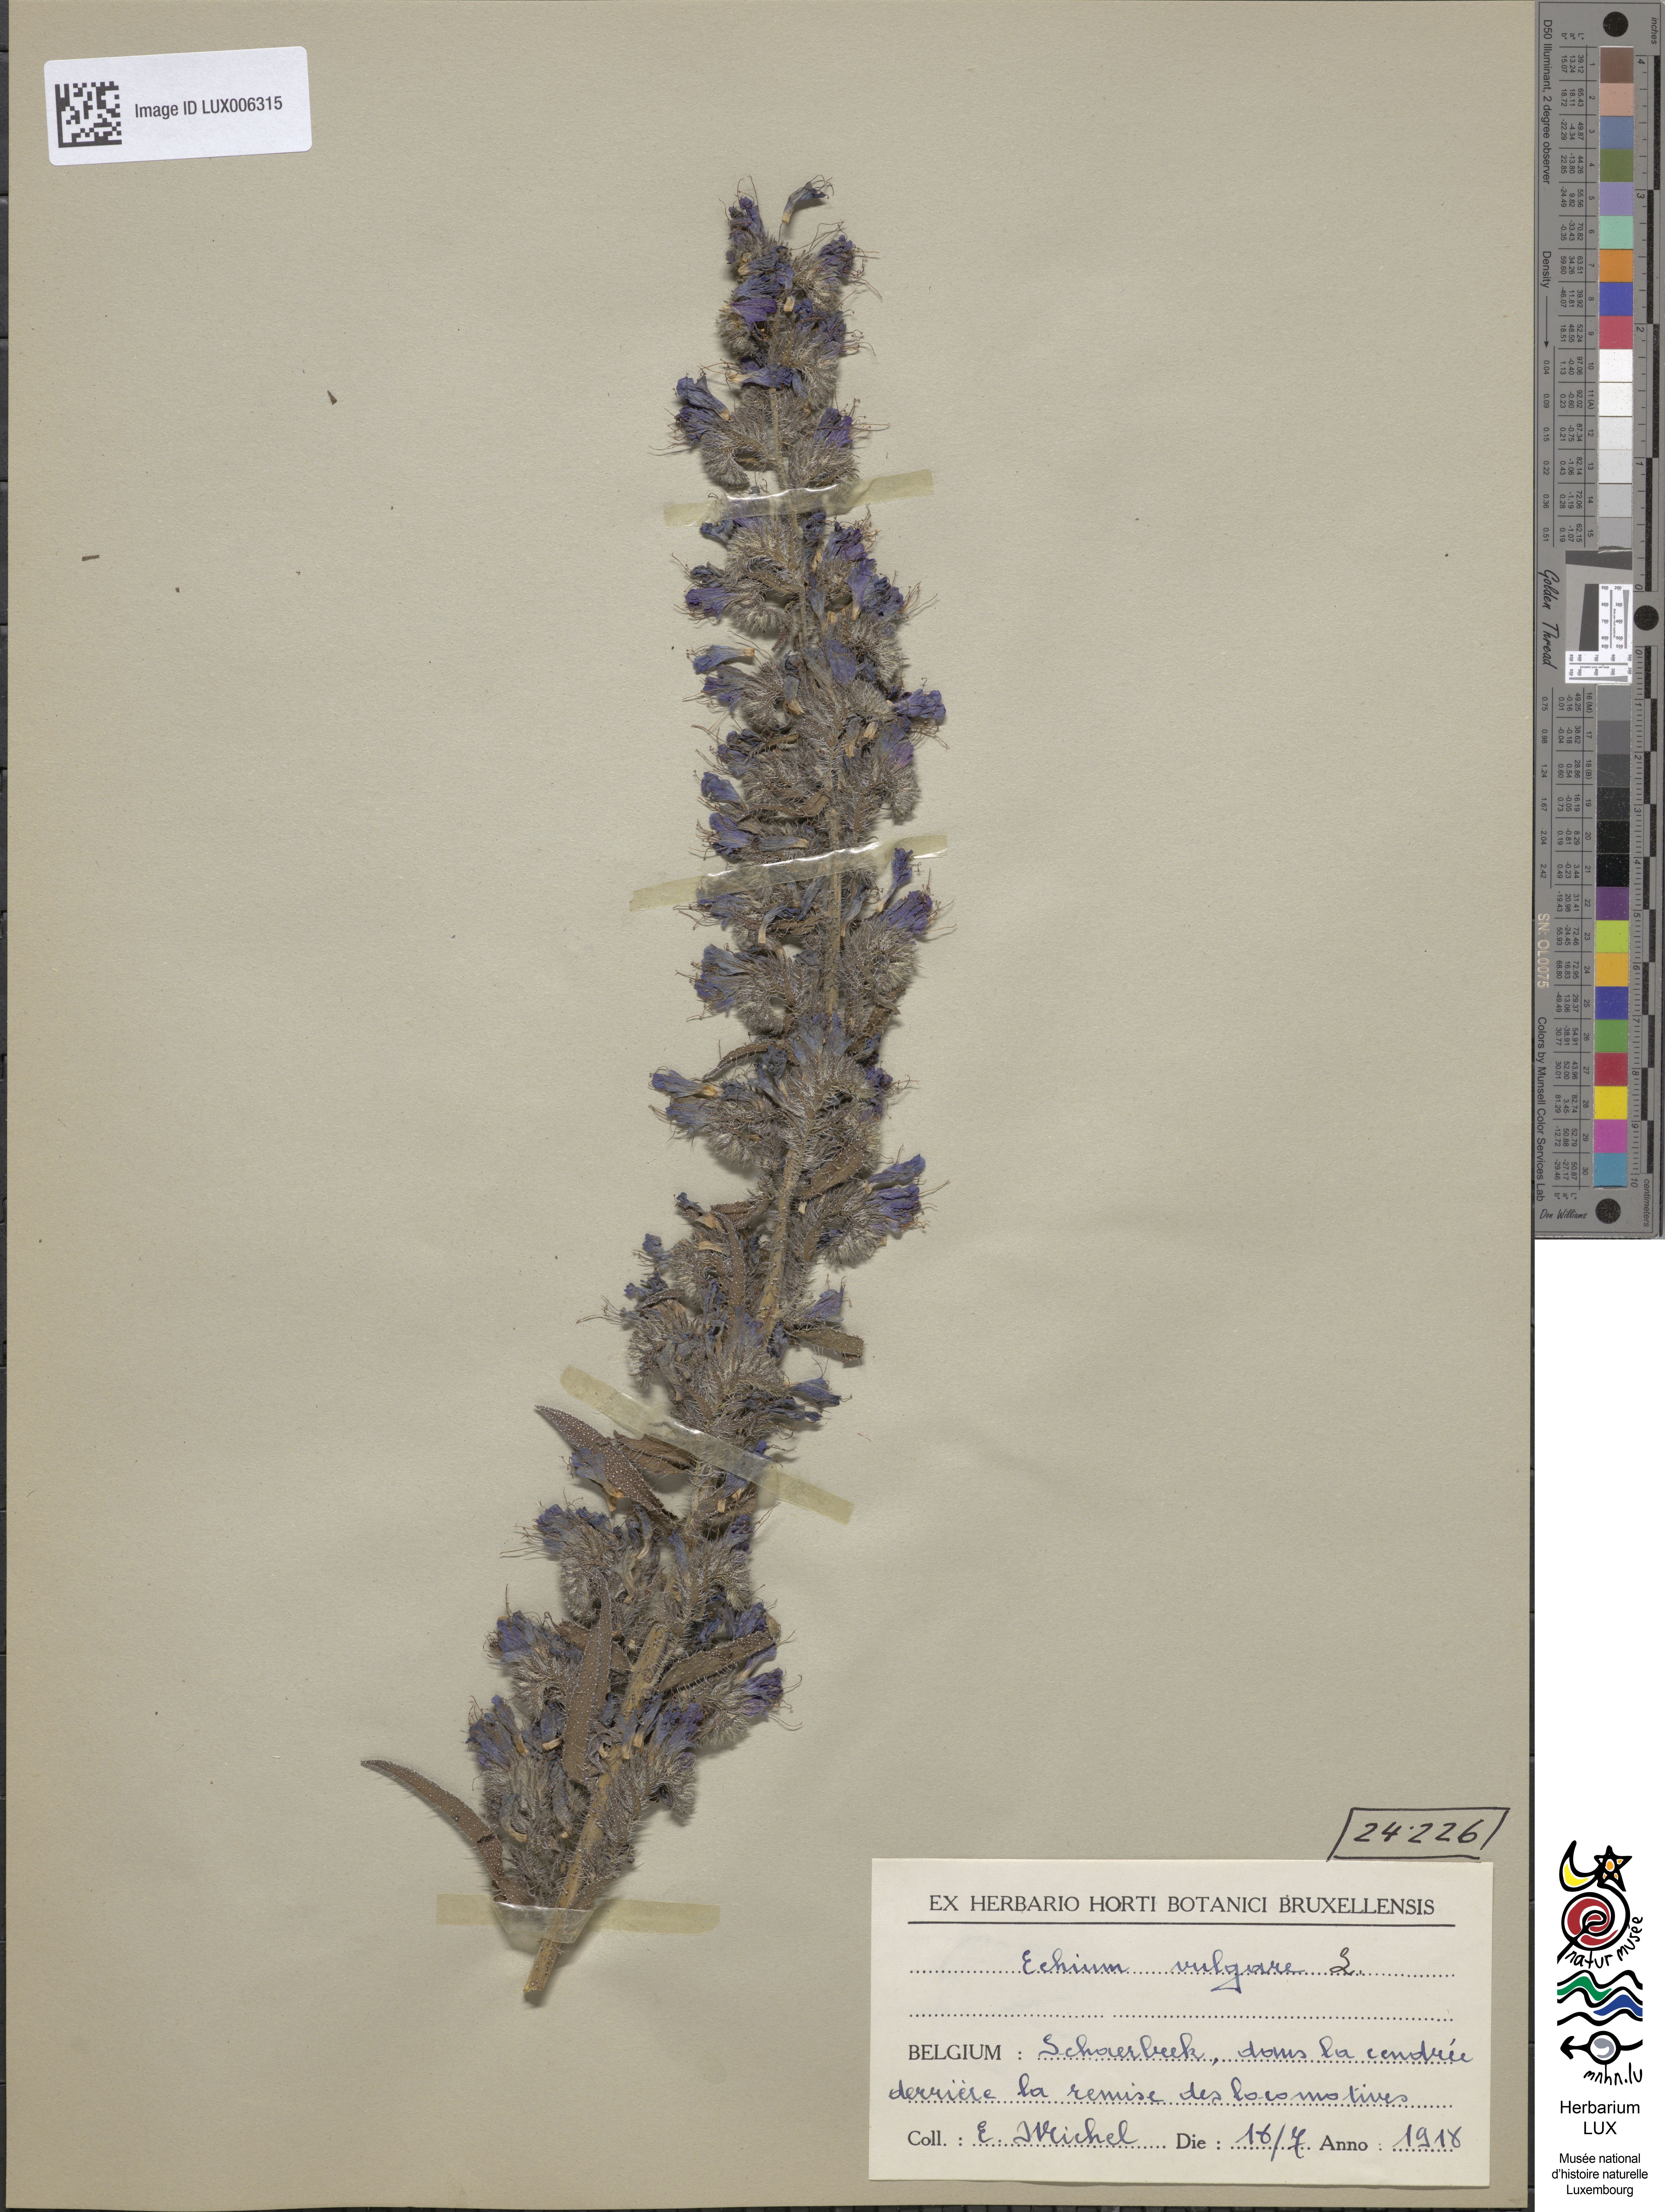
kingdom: Plantae
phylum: Tracheophyta
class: Magnoliopsida
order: Boraginales
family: Boraginaceae
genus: Echium
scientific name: Echium vulgare
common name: Common viper's bugloss
